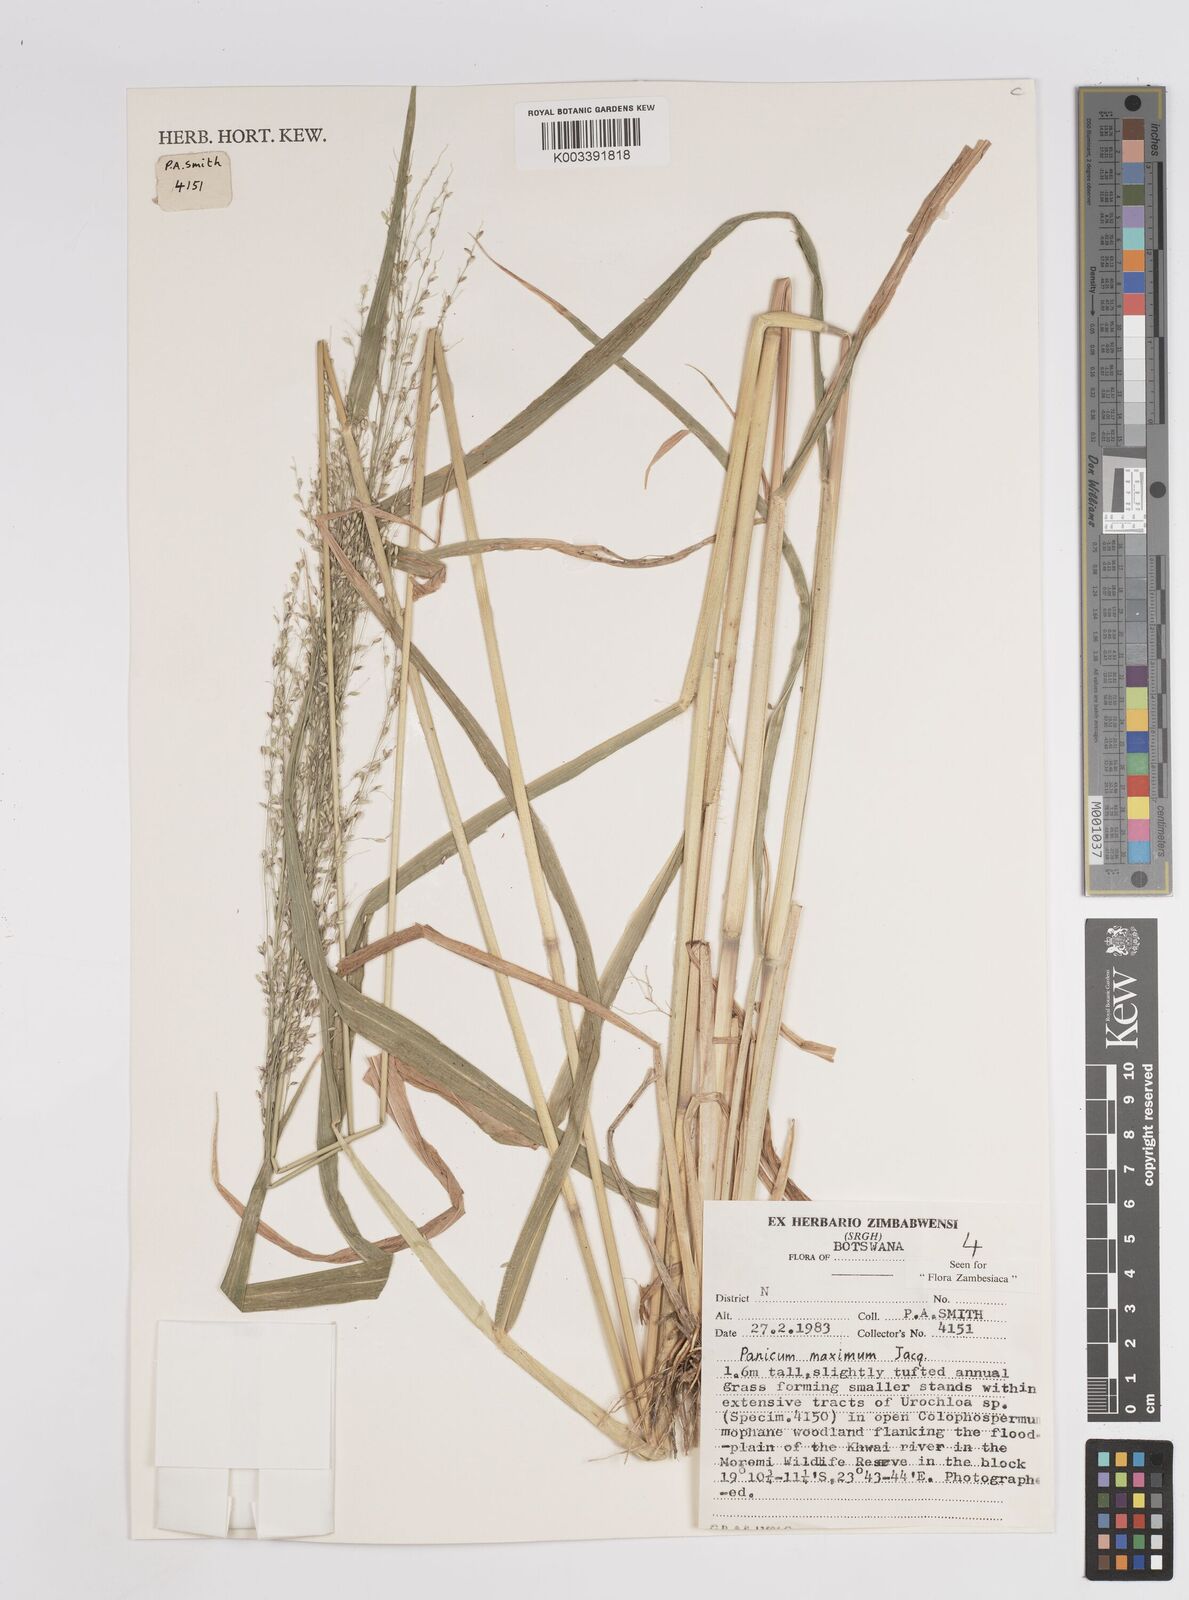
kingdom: Plantae
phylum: Tracheophyta
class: Liliopsida
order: Poales
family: Poaceae
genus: Megathyrsus
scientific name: Megathyrsus maximus
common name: Guineagrass
